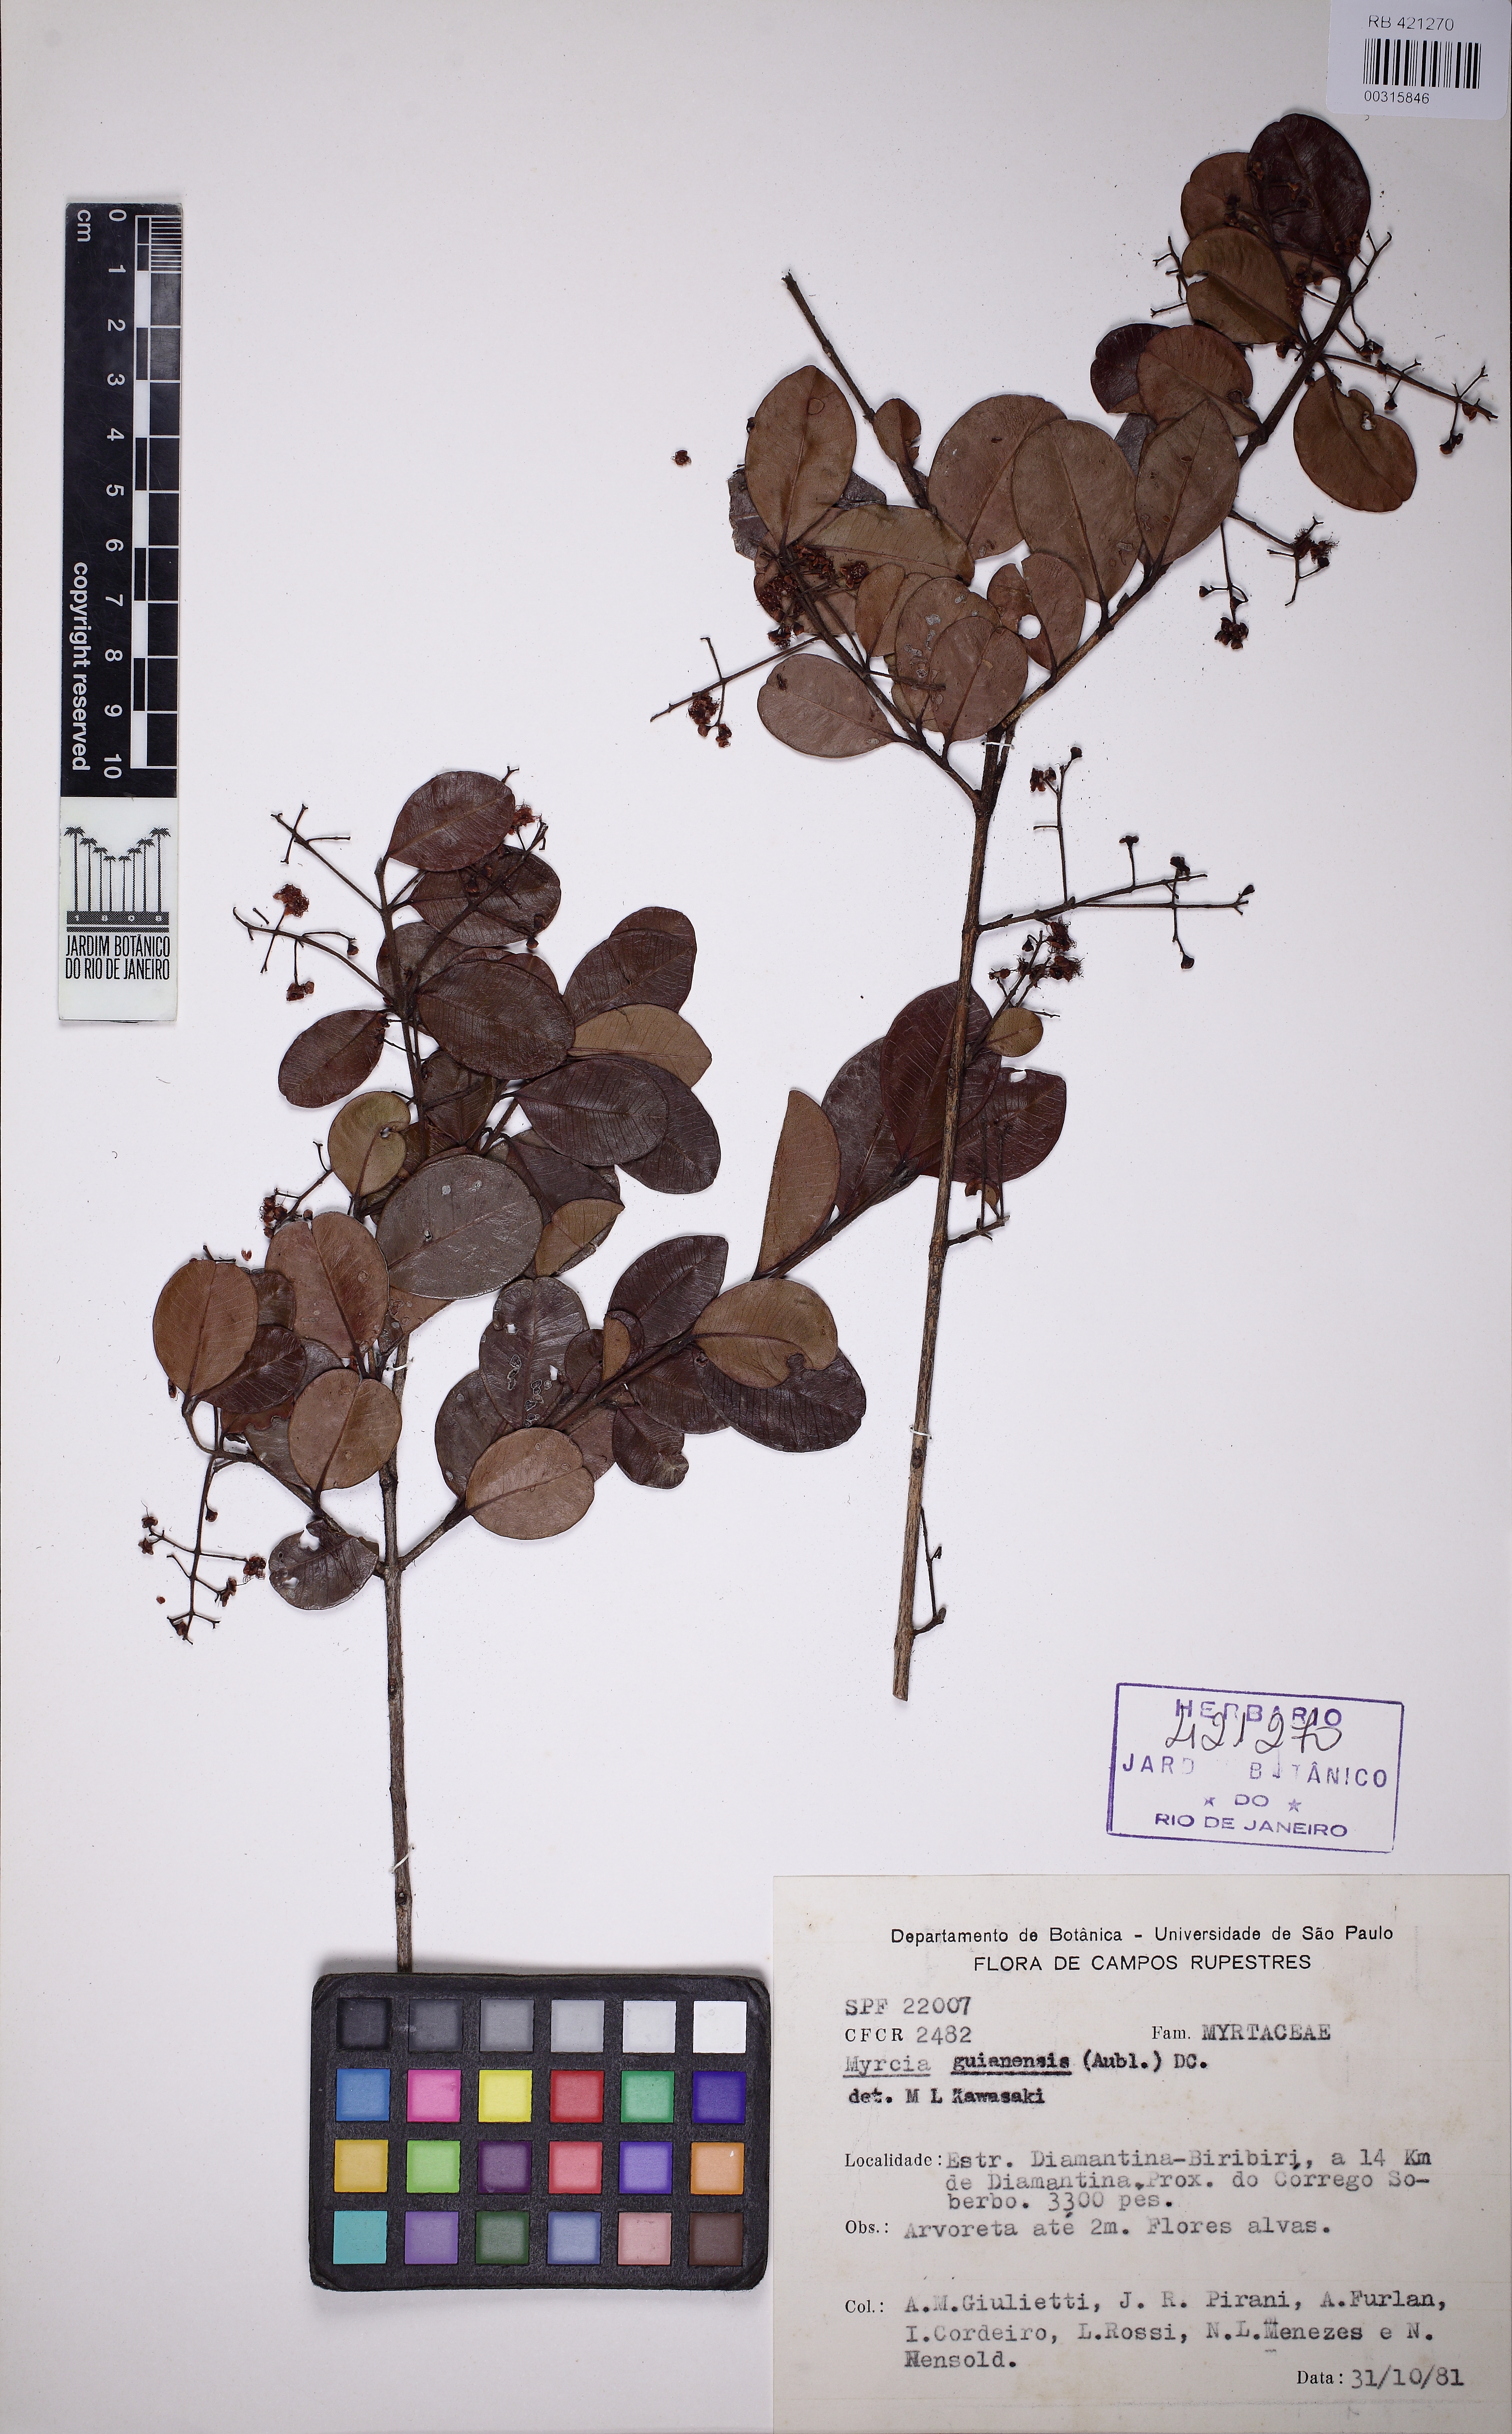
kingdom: Plantae
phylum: Tracheophyta
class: Magnoliopsida
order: Myrtales
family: Myrtaceae
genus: Myrcia
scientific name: Myrcia guianensis
